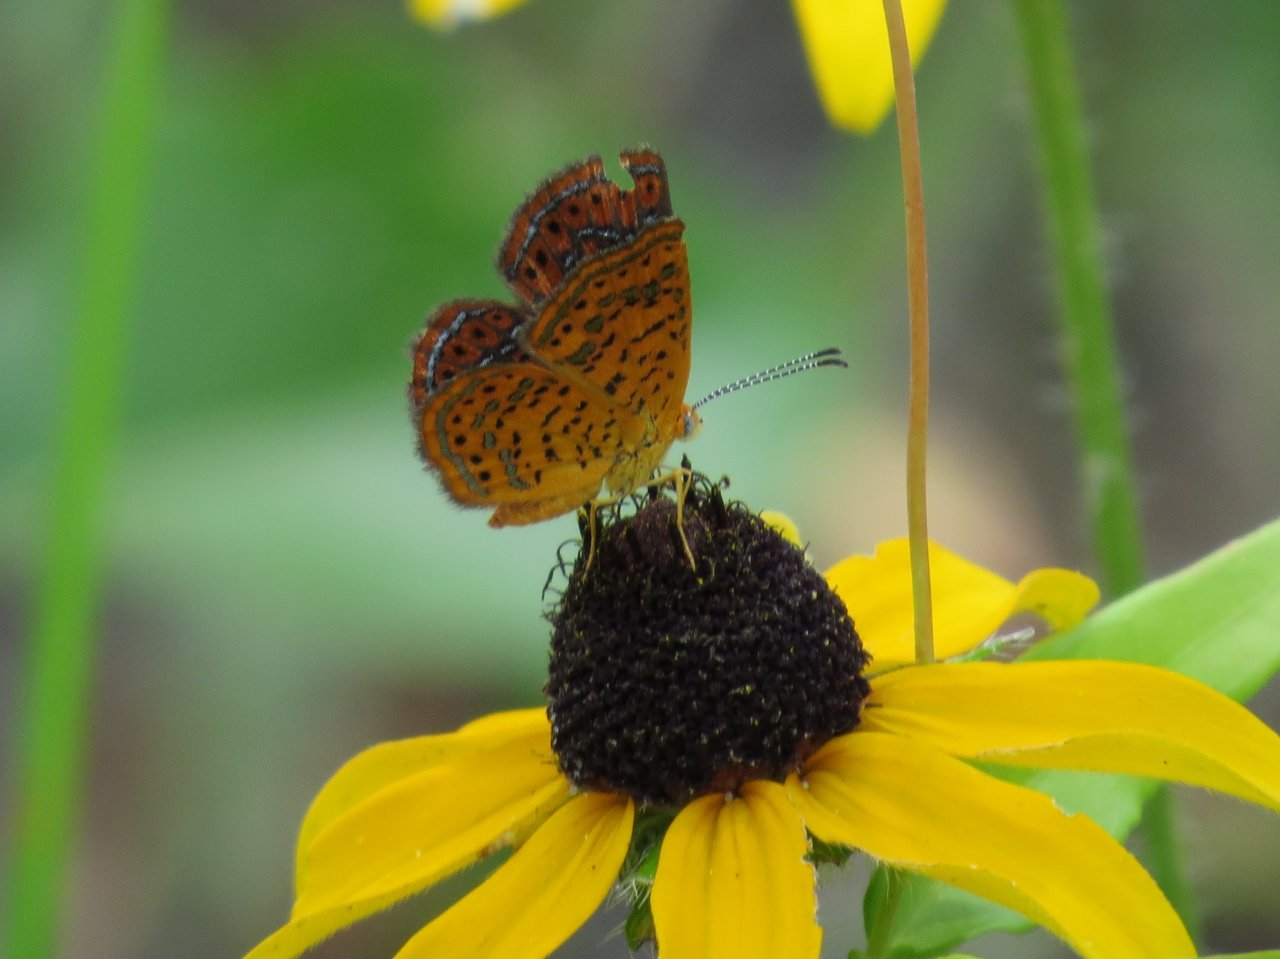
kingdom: Animalia
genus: Calephelis
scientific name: Calephelis virginiensis
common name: Little Metalmark
